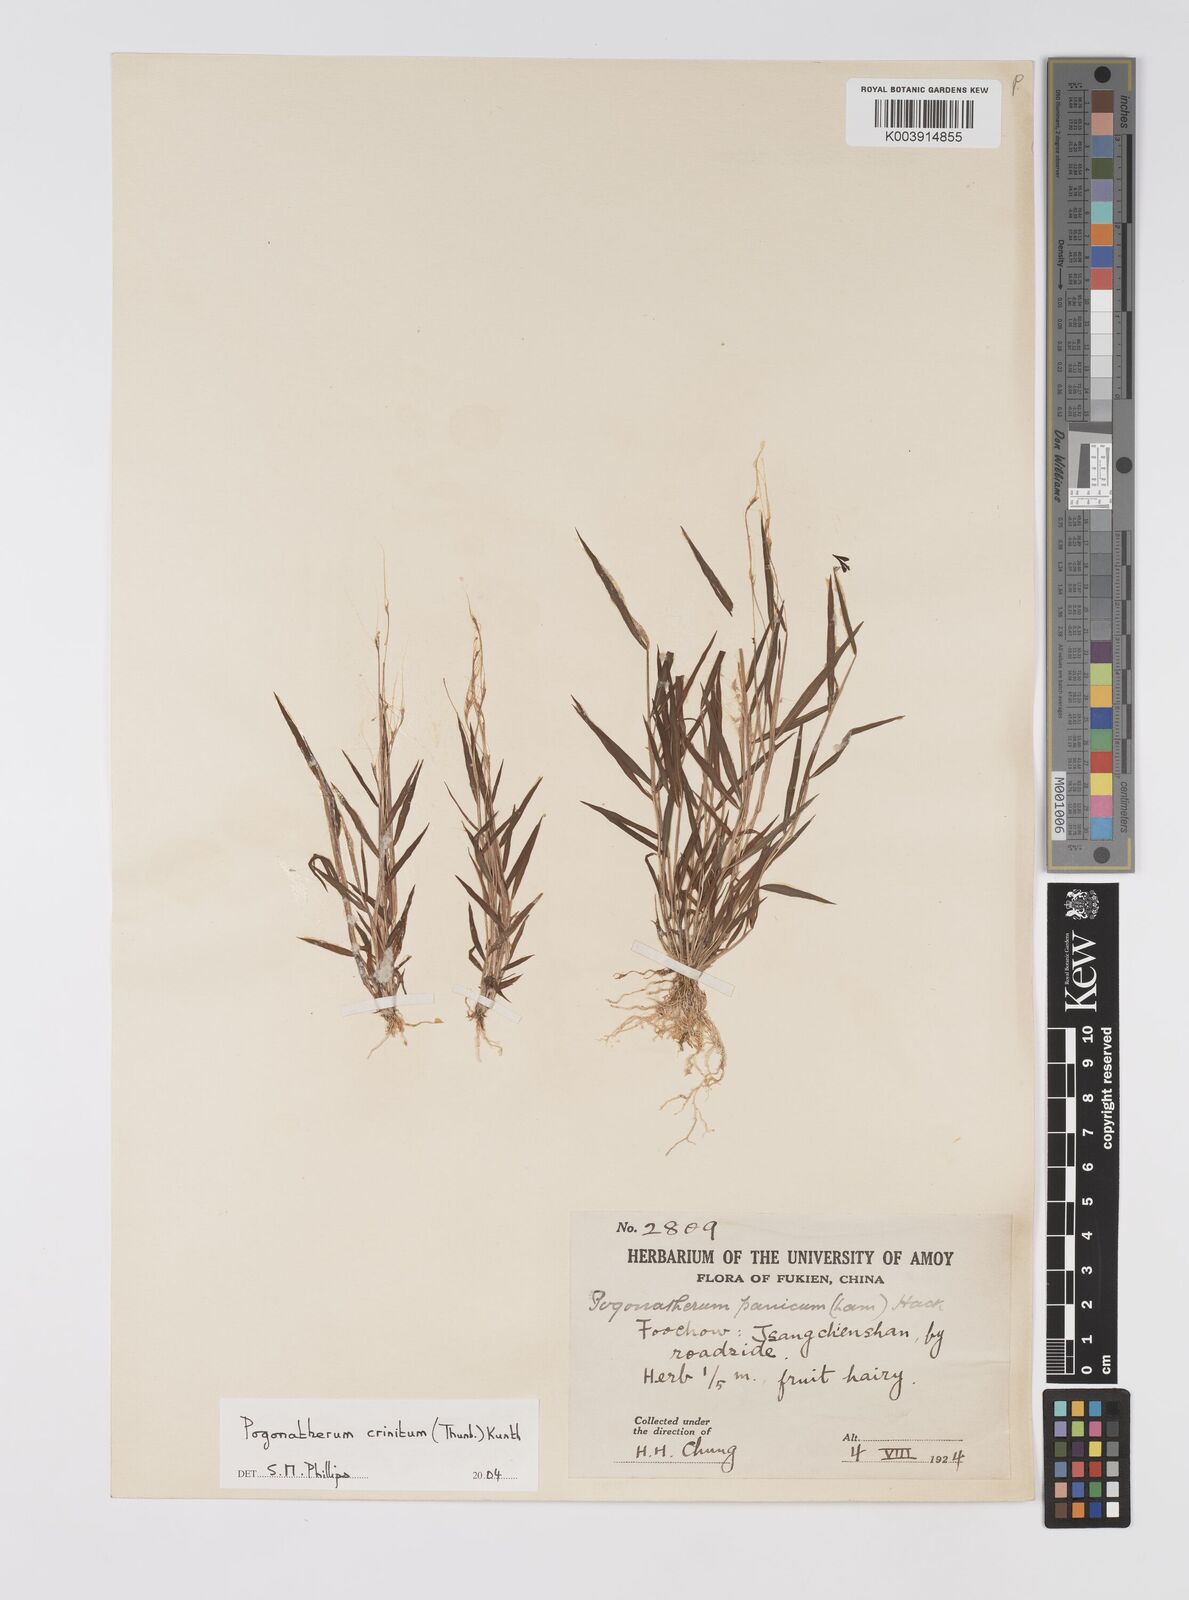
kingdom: Plantae
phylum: Tracheophyta
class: Liliopsida
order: Poales
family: Poaceae
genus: Pogonatherum
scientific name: Pogonatherum crinitum
